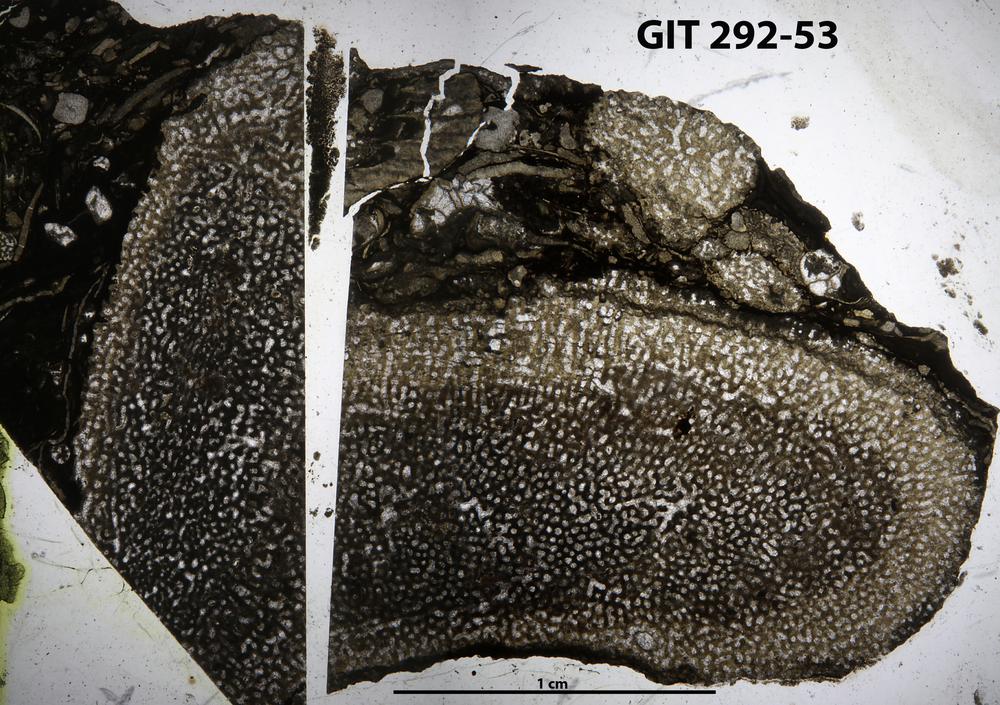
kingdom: Animalia
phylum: Porifera
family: Stromatoporidae
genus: Stromatopora
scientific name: Stromatopora
